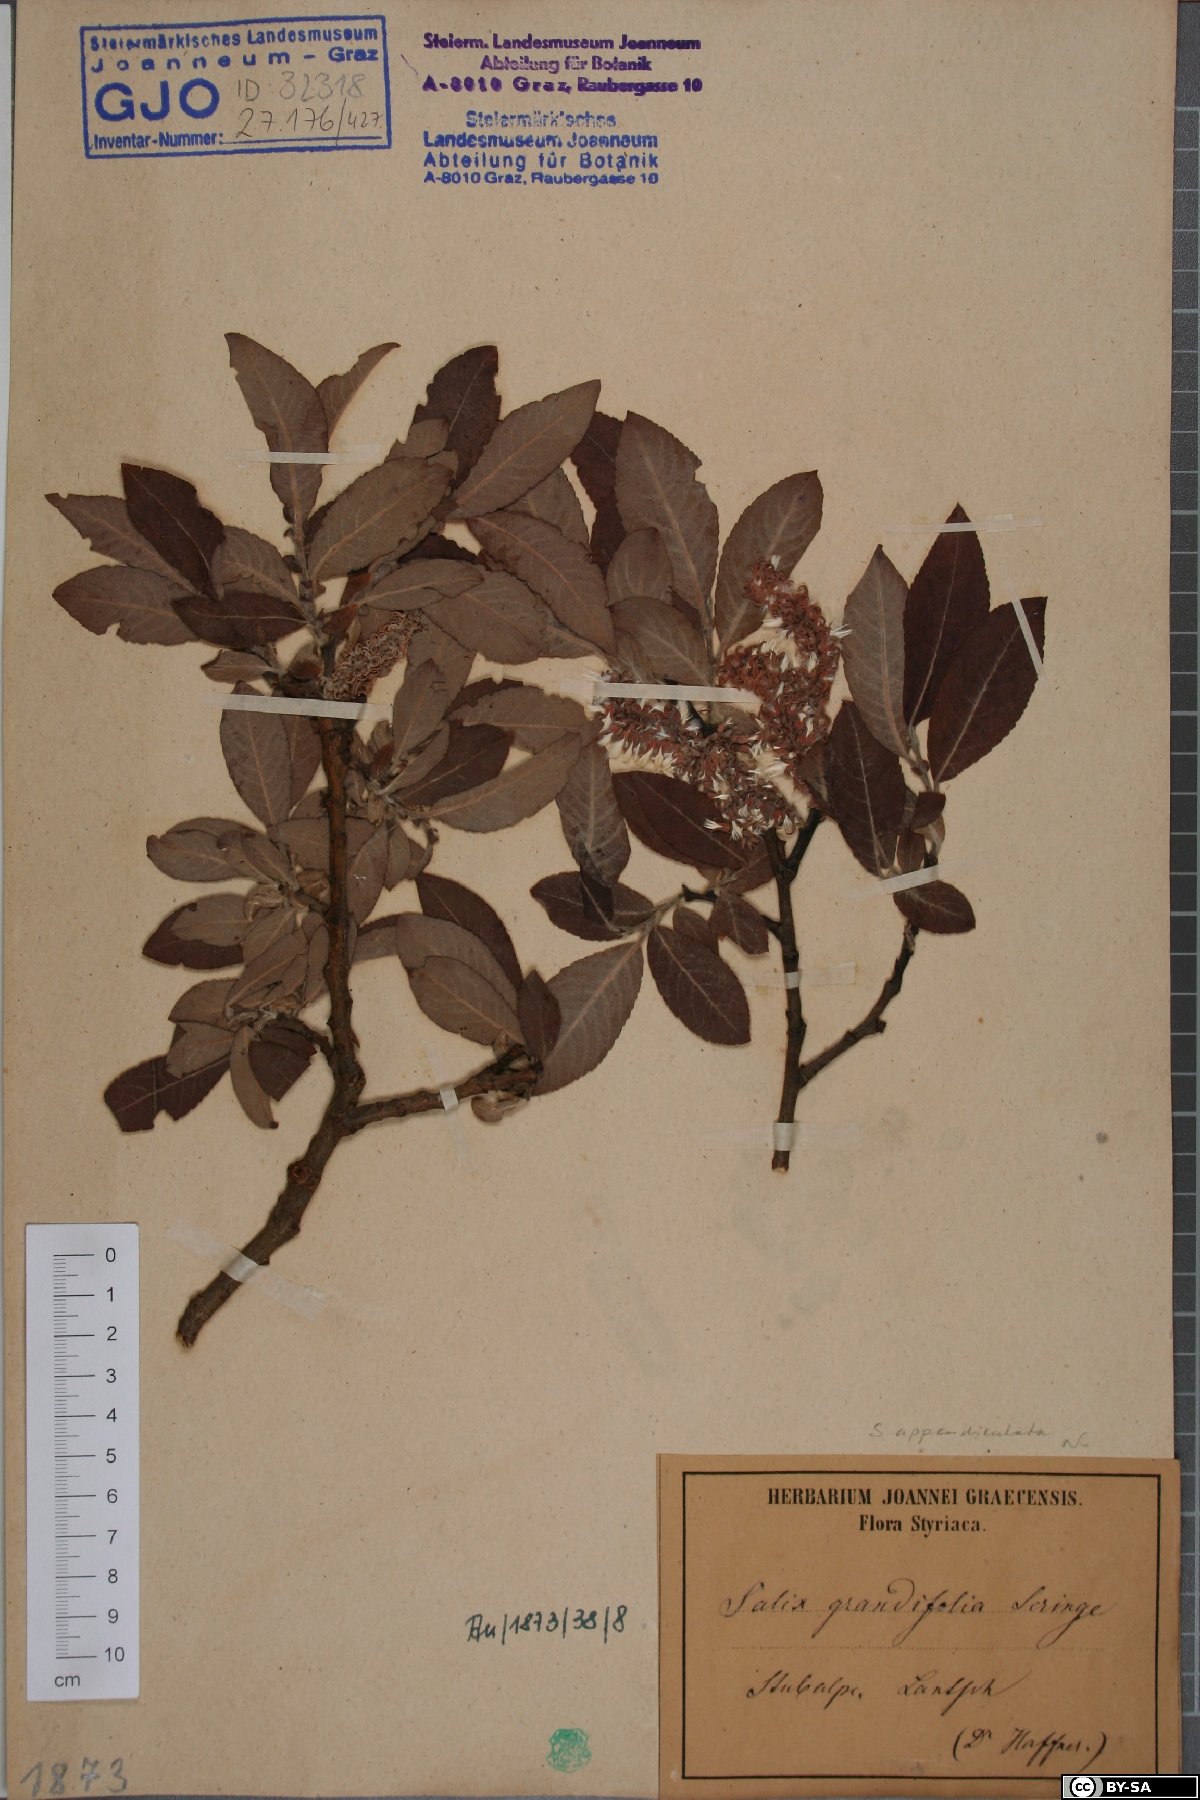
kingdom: Plantae
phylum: Tracheophyta
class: Magnoliopsida
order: Malpighiales
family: Salicaceae
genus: Salix
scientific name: Salix appendiculata
